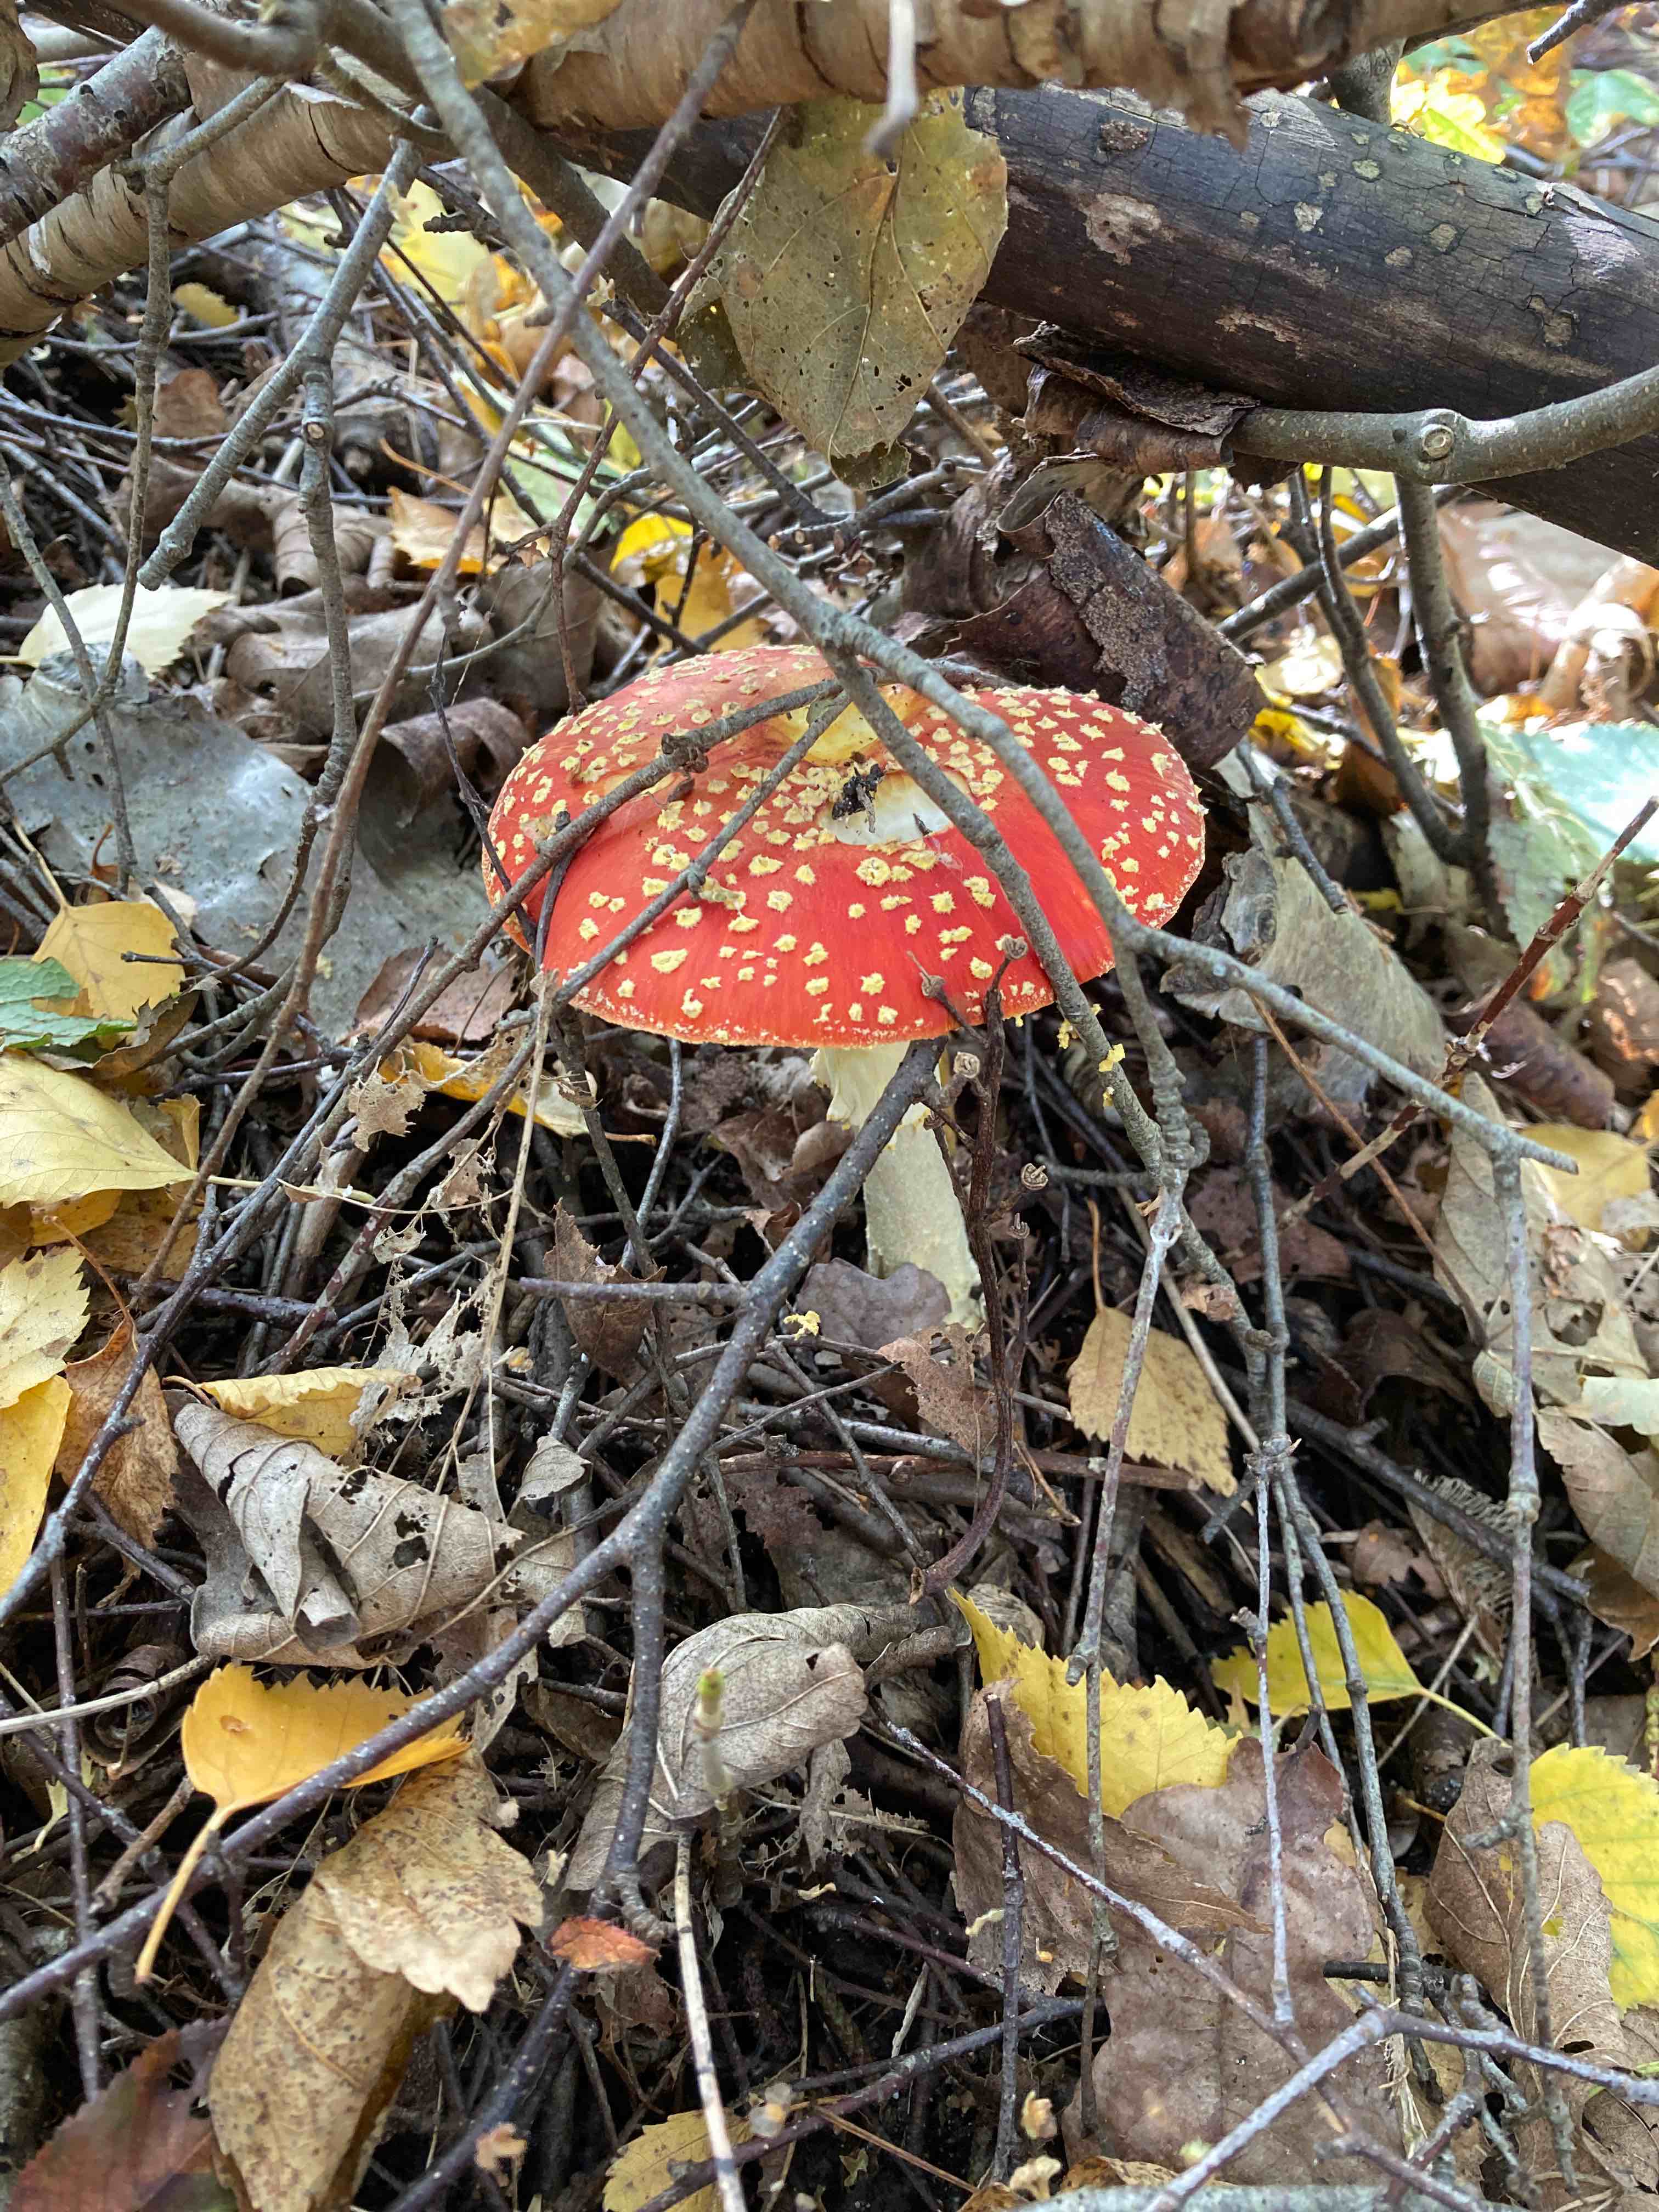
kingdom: Fungi
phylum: Basidiomycota
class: Agaricomycetes
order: Agaricales
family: Amanitaceae
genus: Amanita
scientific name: Amanita muscaria
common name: rød fluesvamp
